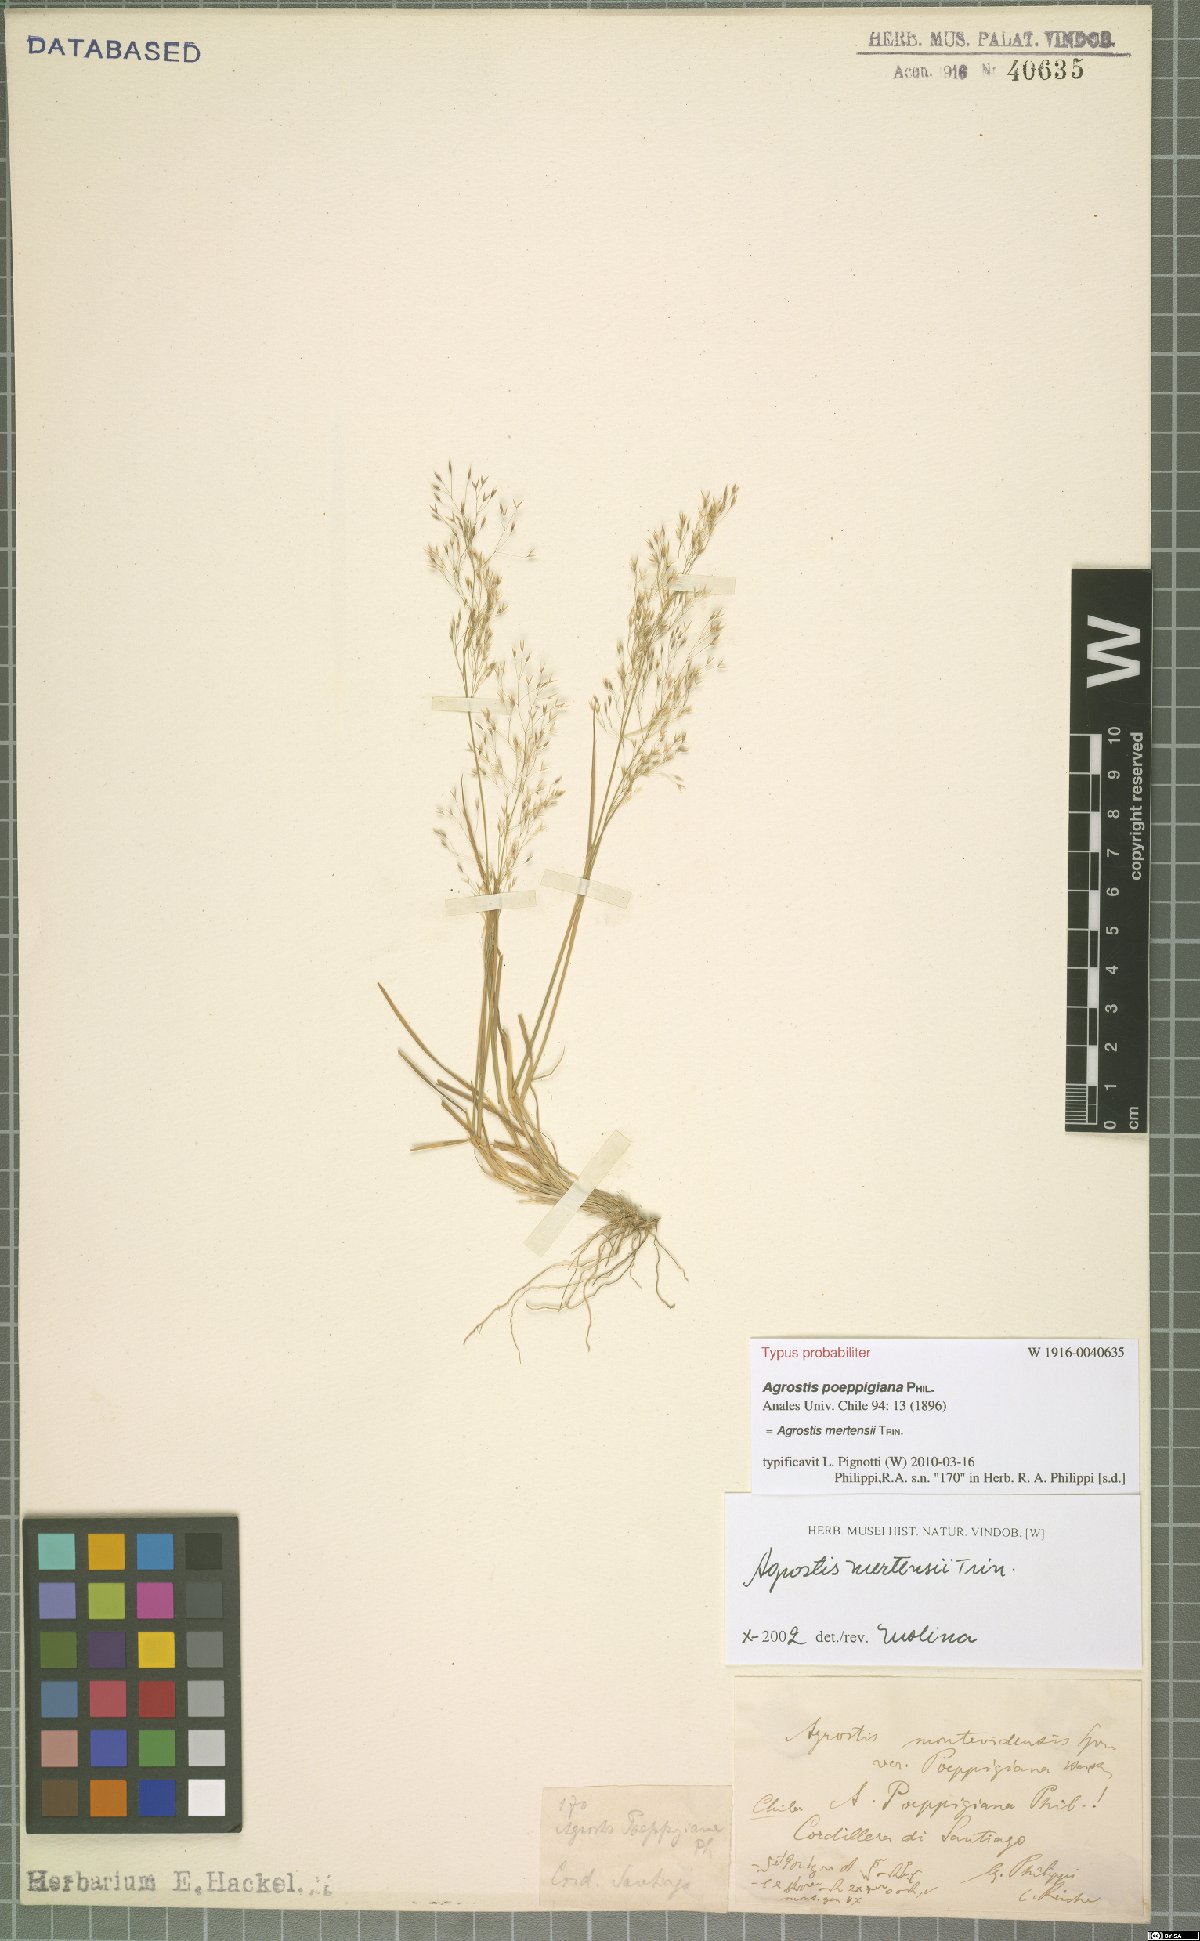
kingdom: Plantae
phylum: Tracheophyta
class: Liliopsida
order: Poales
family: Poaceae
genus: Agrostis
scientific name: Agrostis mertensii
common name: Northern bent
